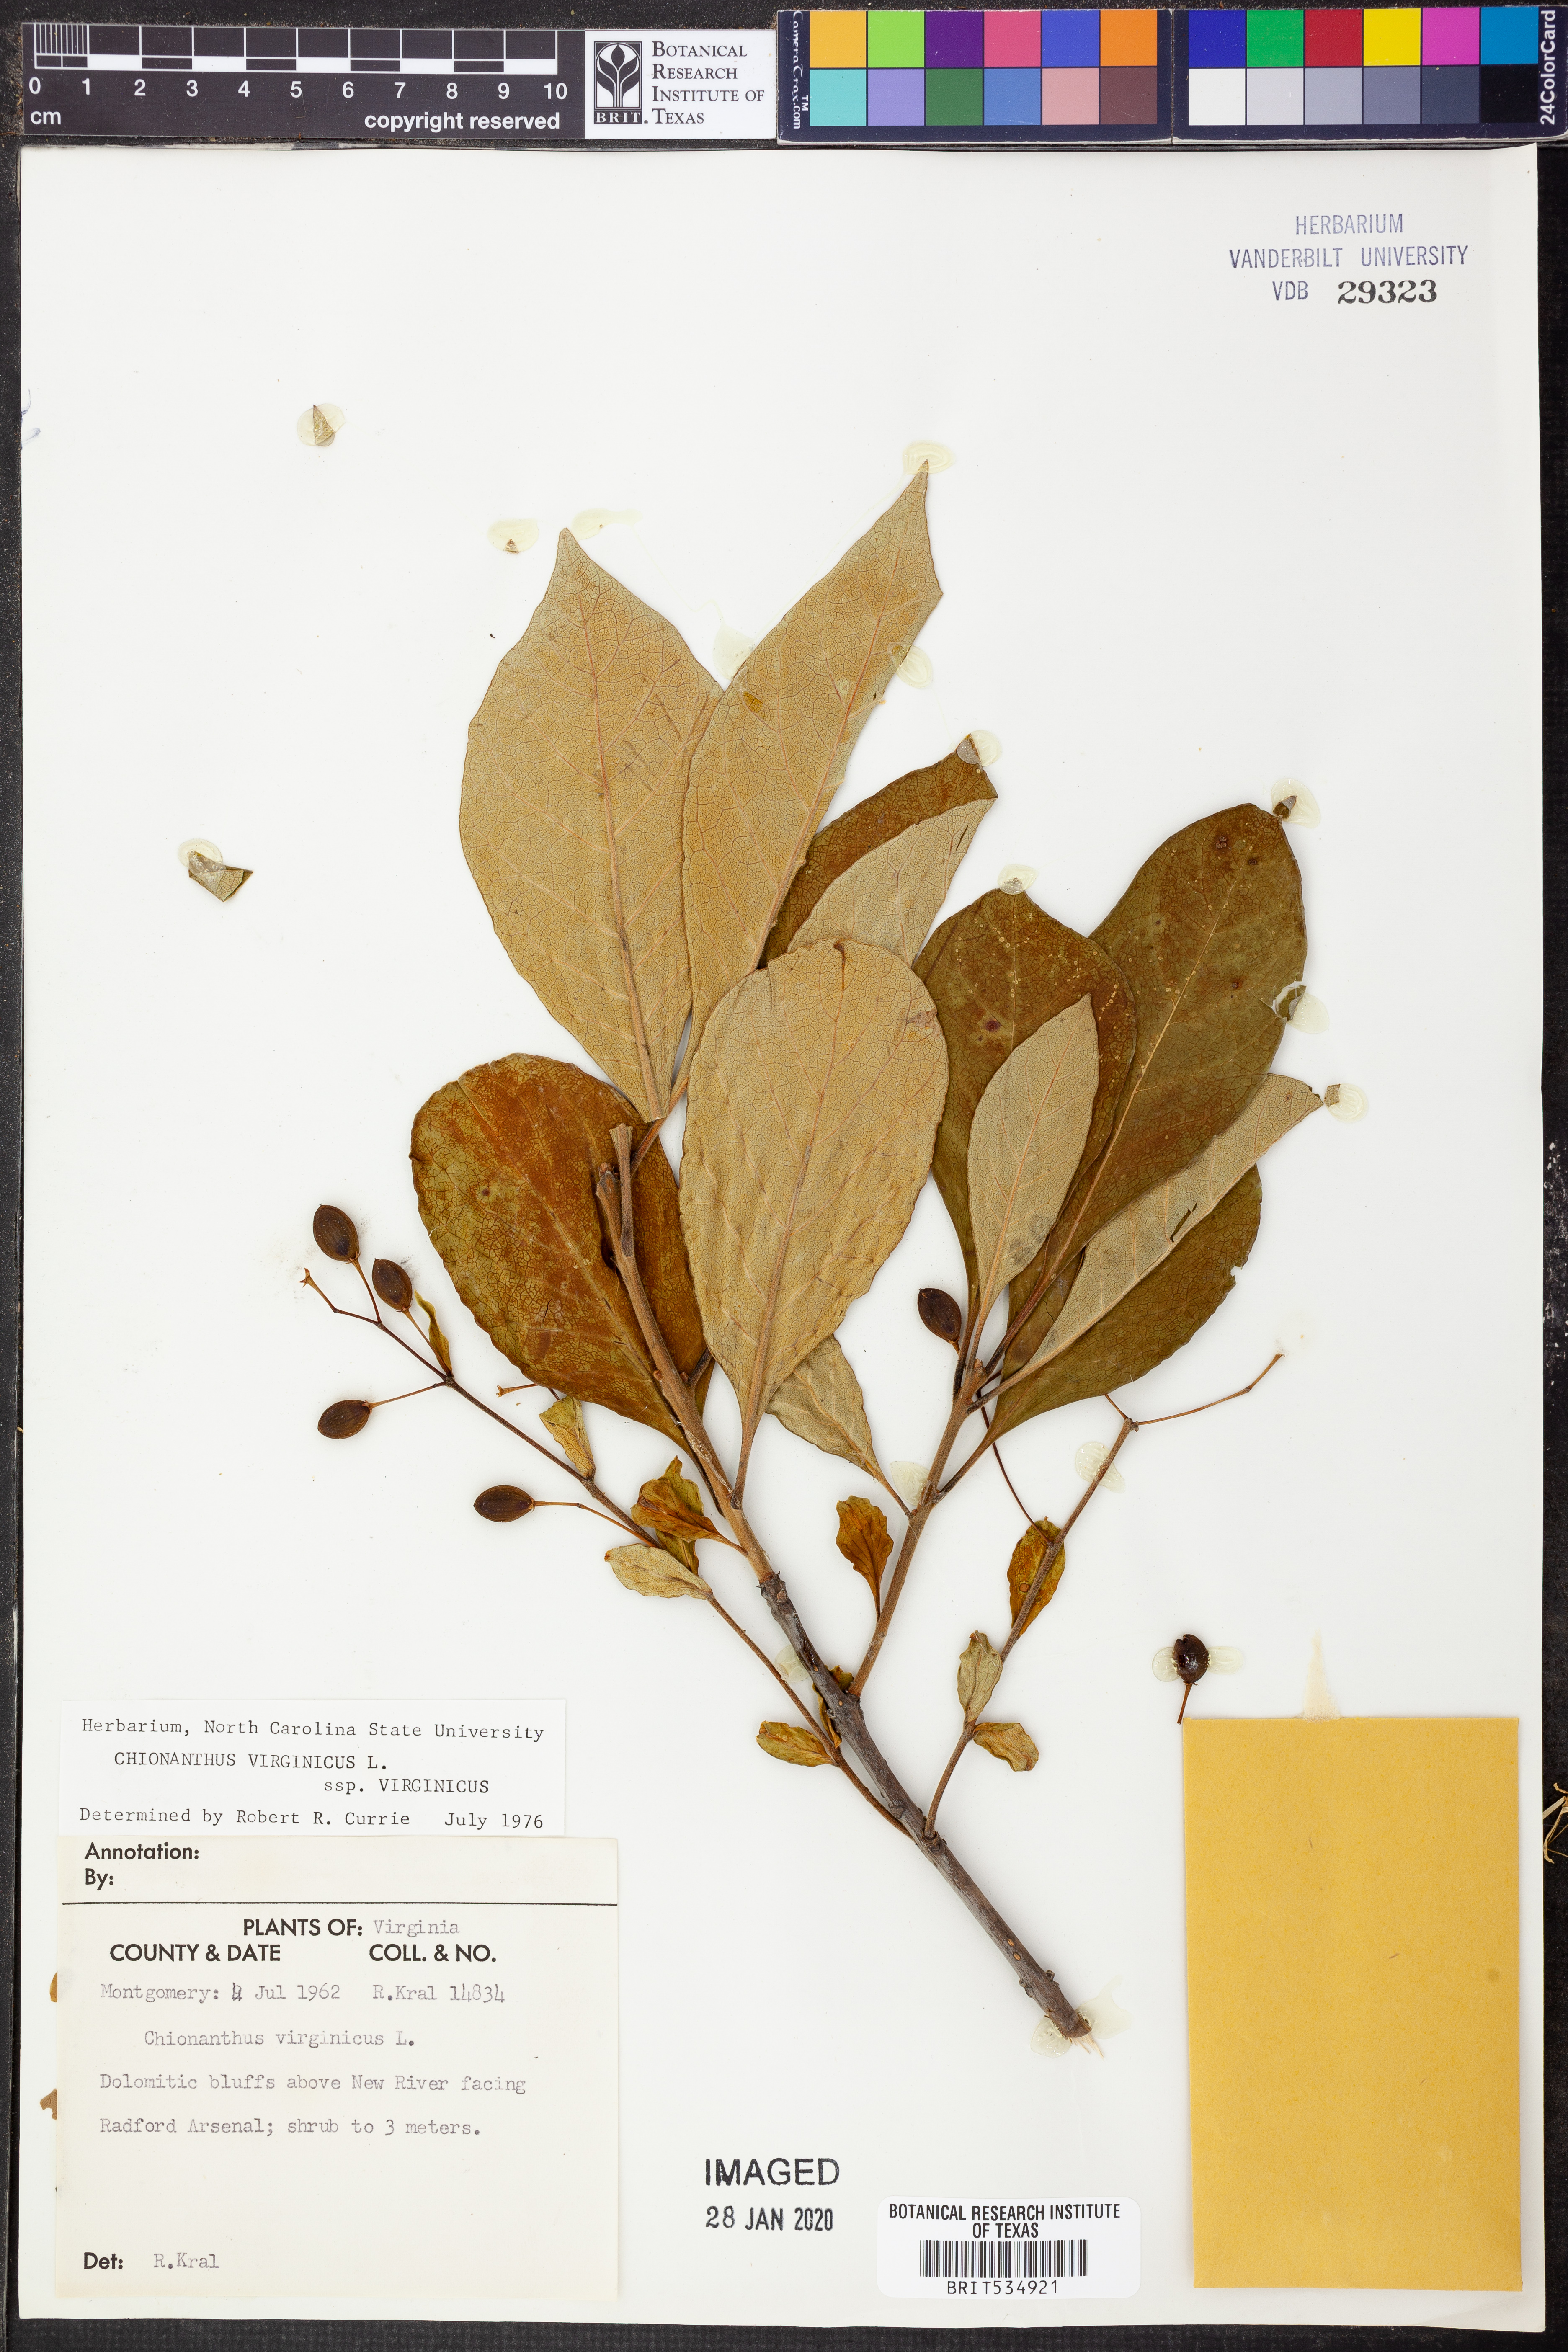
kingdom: Plantae
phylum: Tracheophyta
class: Magnoliopsida
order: Lamiales
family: Oleaceae
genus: Chionanthus
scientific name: Chionanthus virginicus
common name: American fringetree
